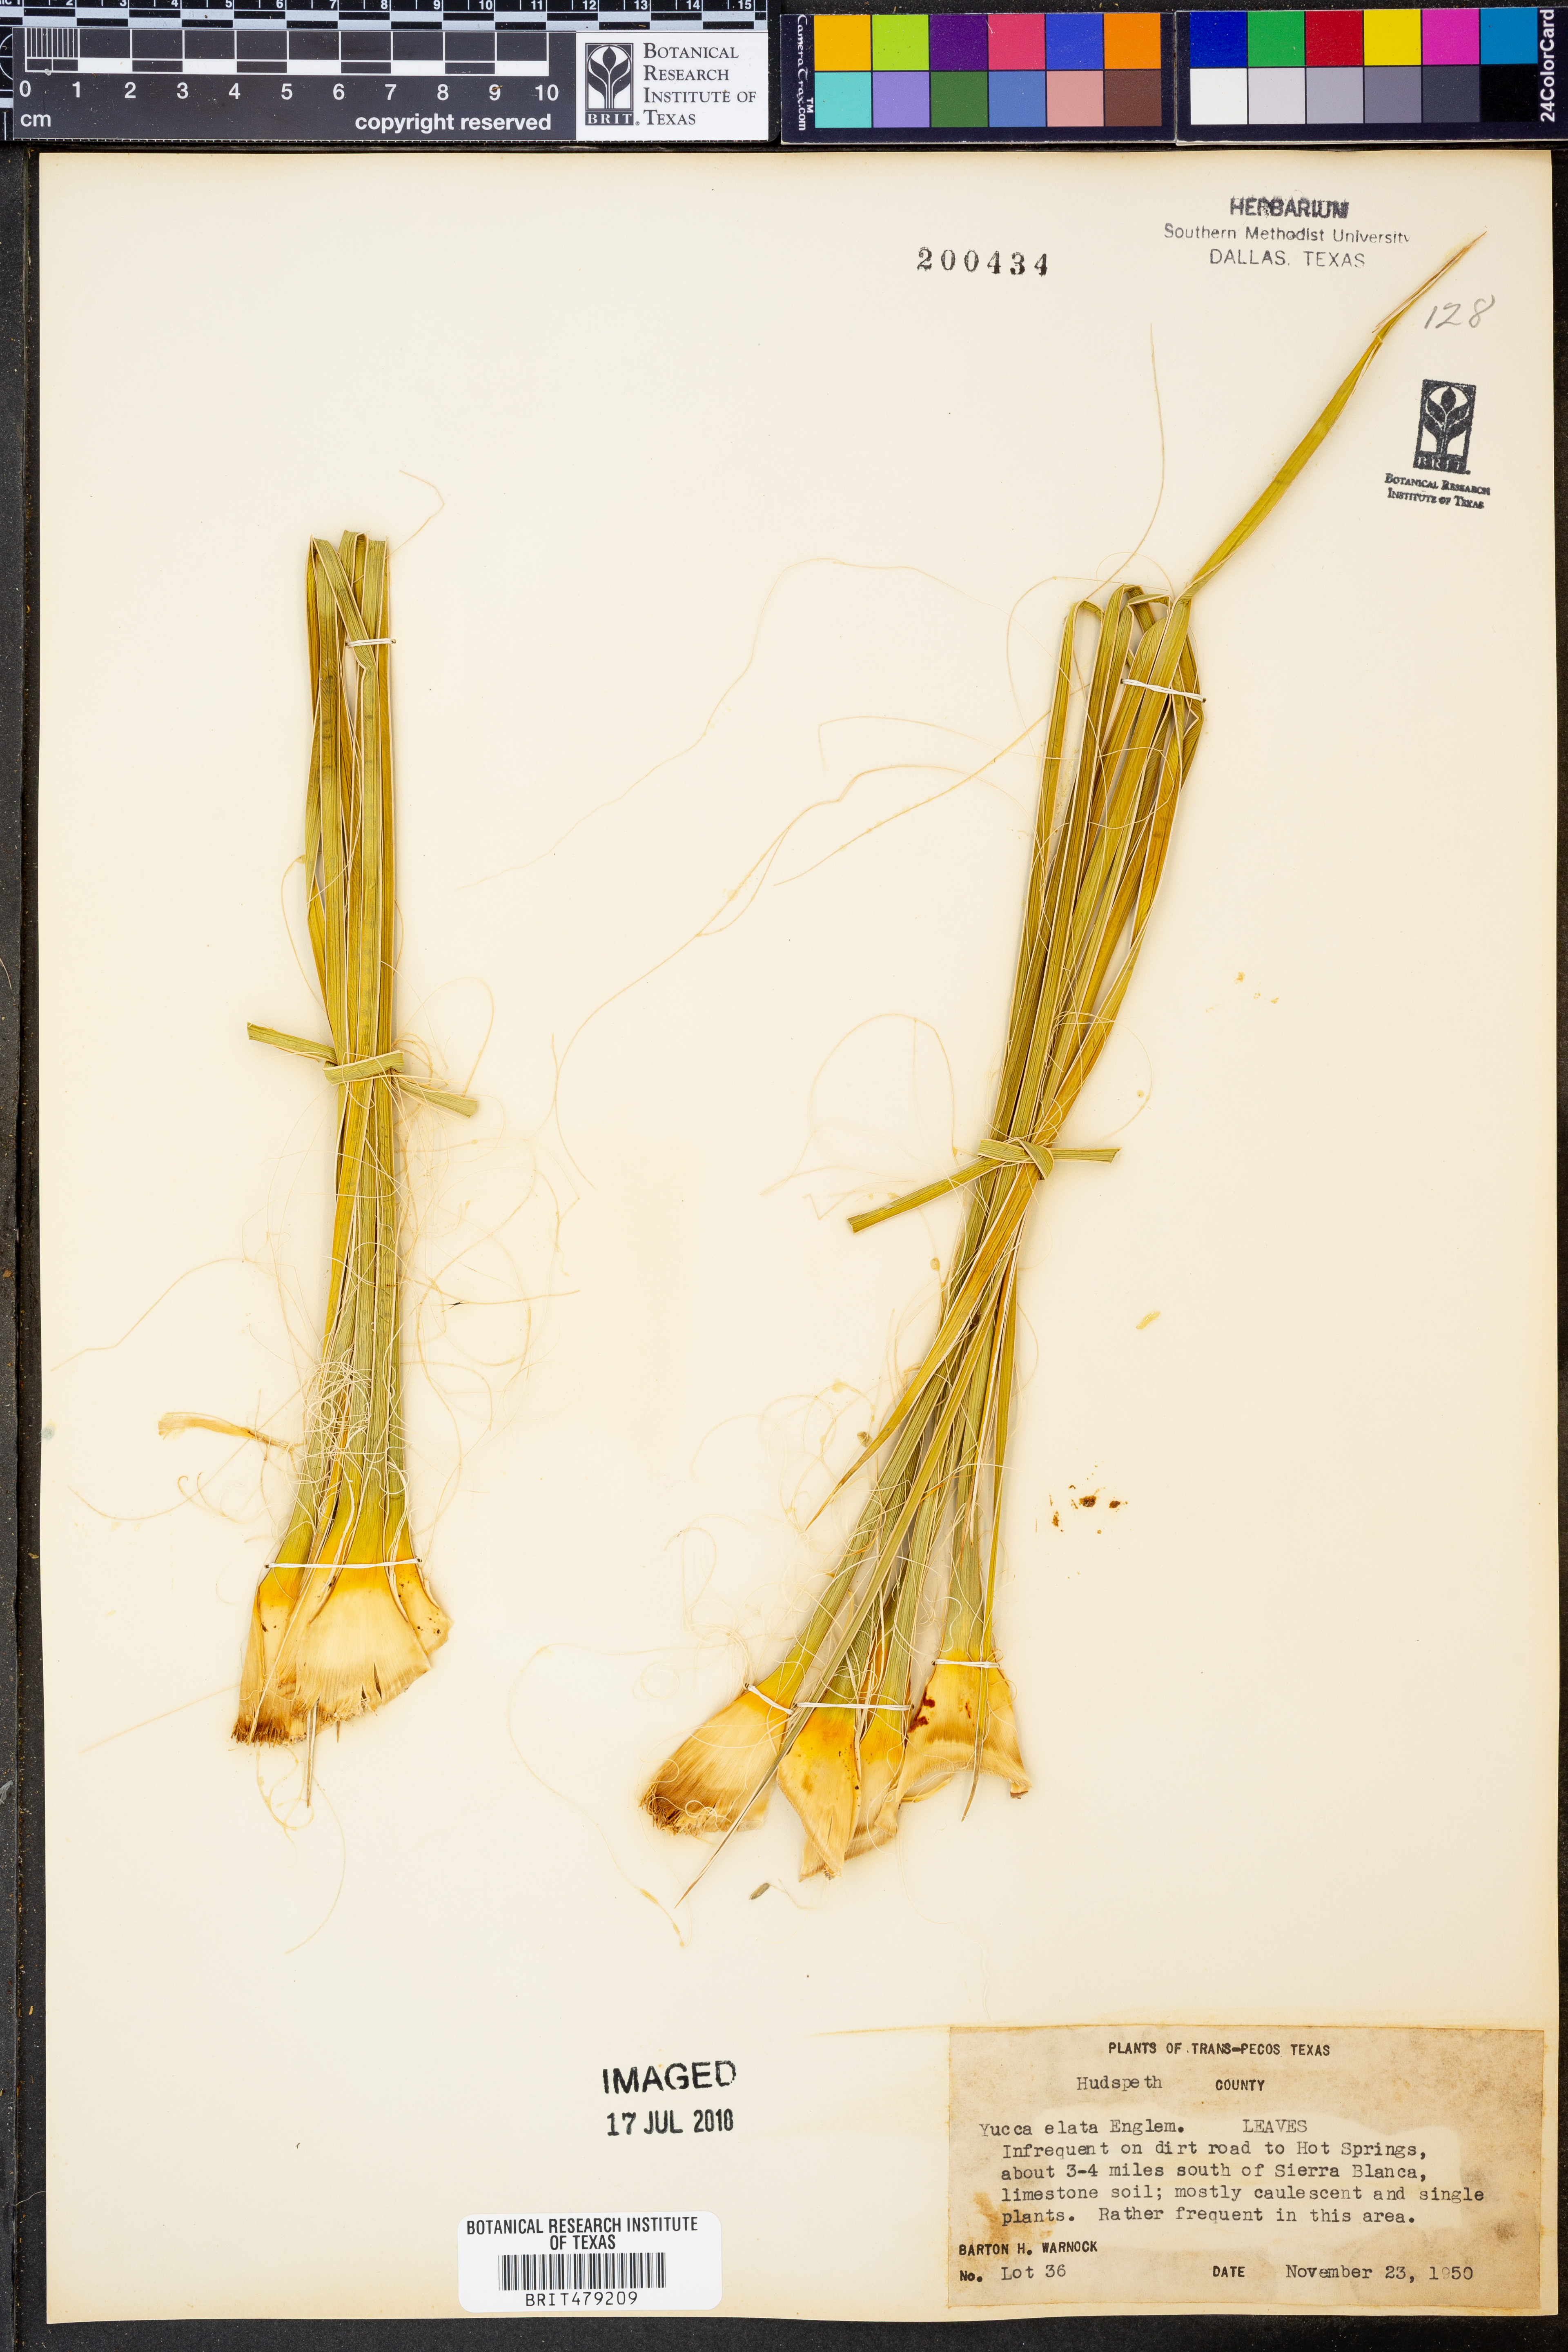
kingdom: Plantae
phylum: Tracheophyta
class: Liliopsida
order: Asparagales
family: Asparagaceae
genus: Yucca
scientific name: Yucca elata
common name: Palmella
